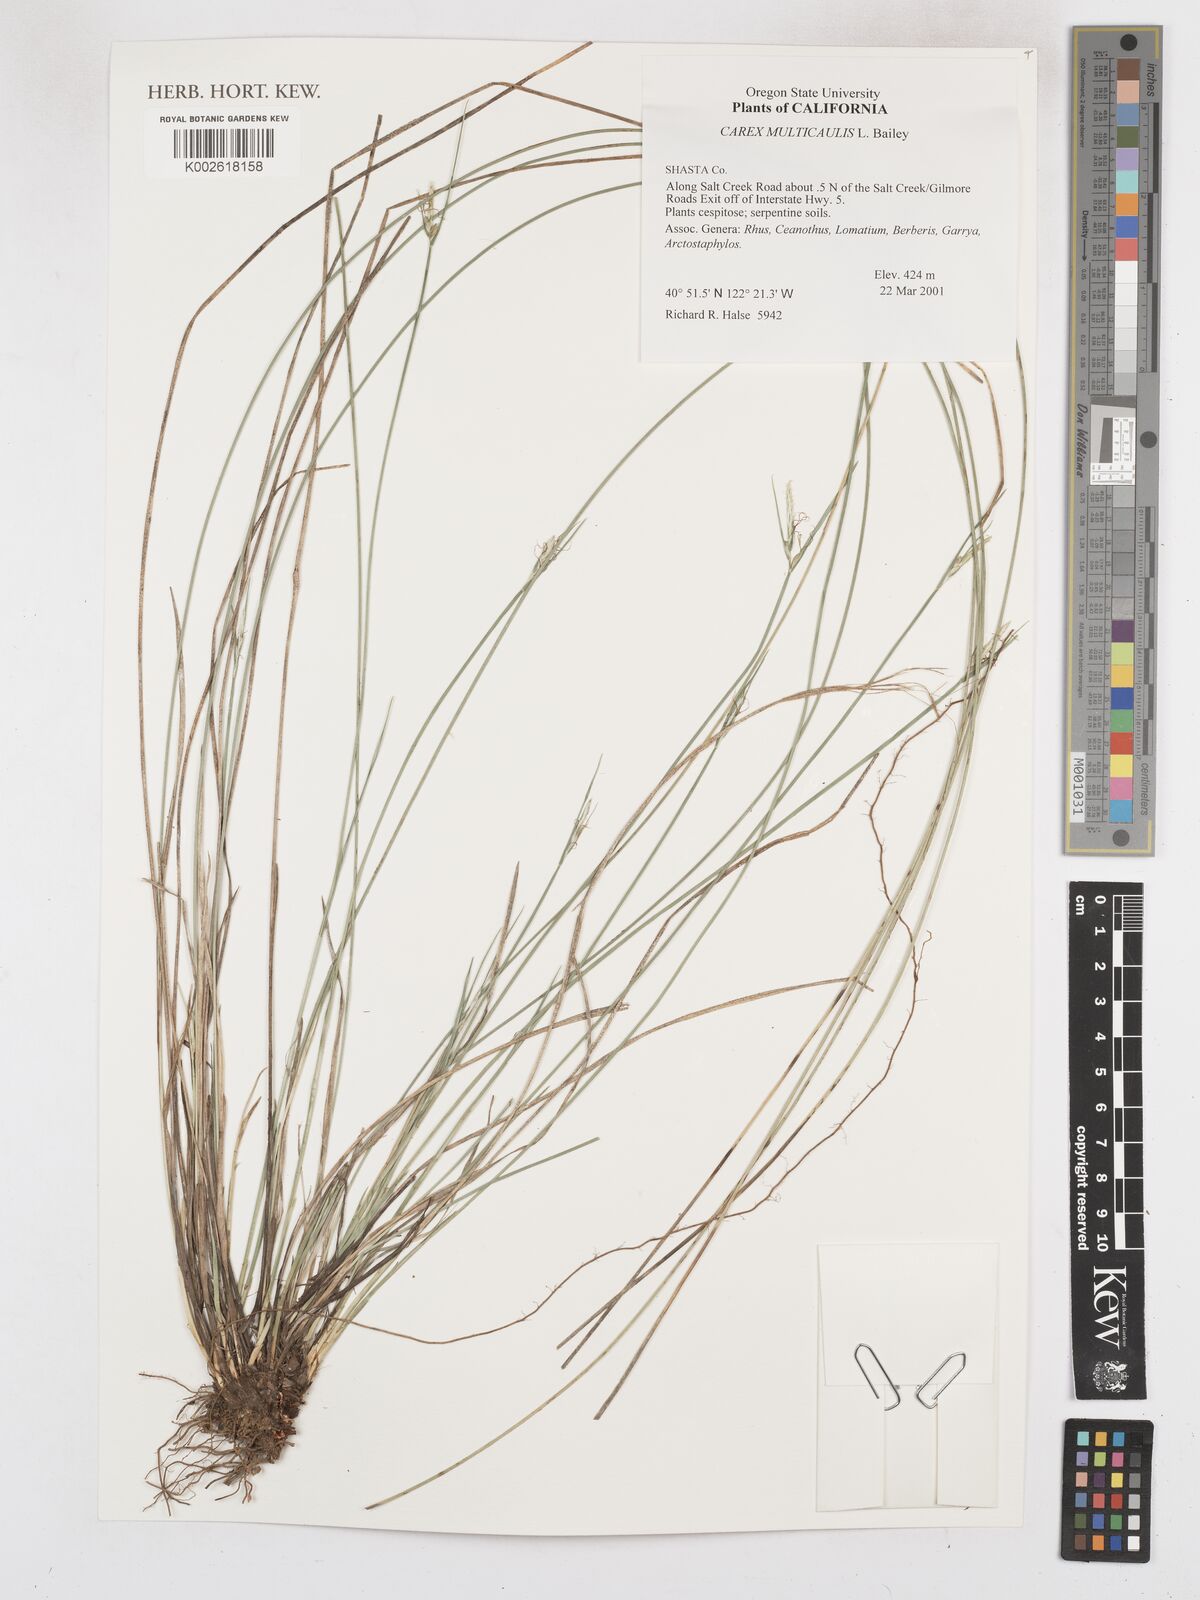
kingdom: Plantae
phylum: Tracheophyta
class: Liliopsida
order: Poales
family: Cyperaceae
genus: Carex
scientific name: Carex multicaulis
